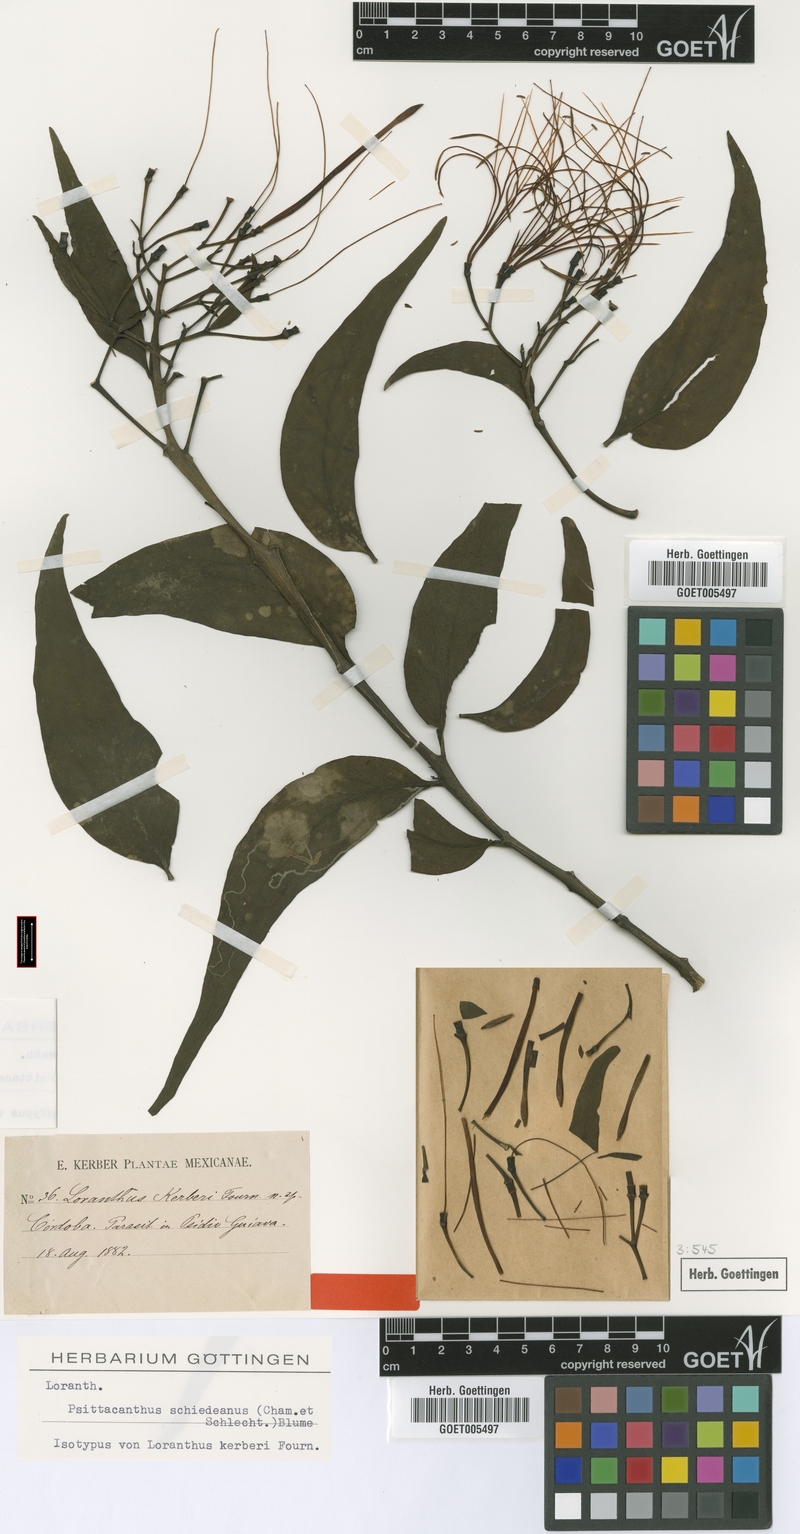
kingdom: Plantae
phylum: Tracheophyta
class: Magnoliopsida
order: Santalales
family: Loranthaceae
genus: Psittacanthus
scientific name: Psittacanthus schiedeanus
